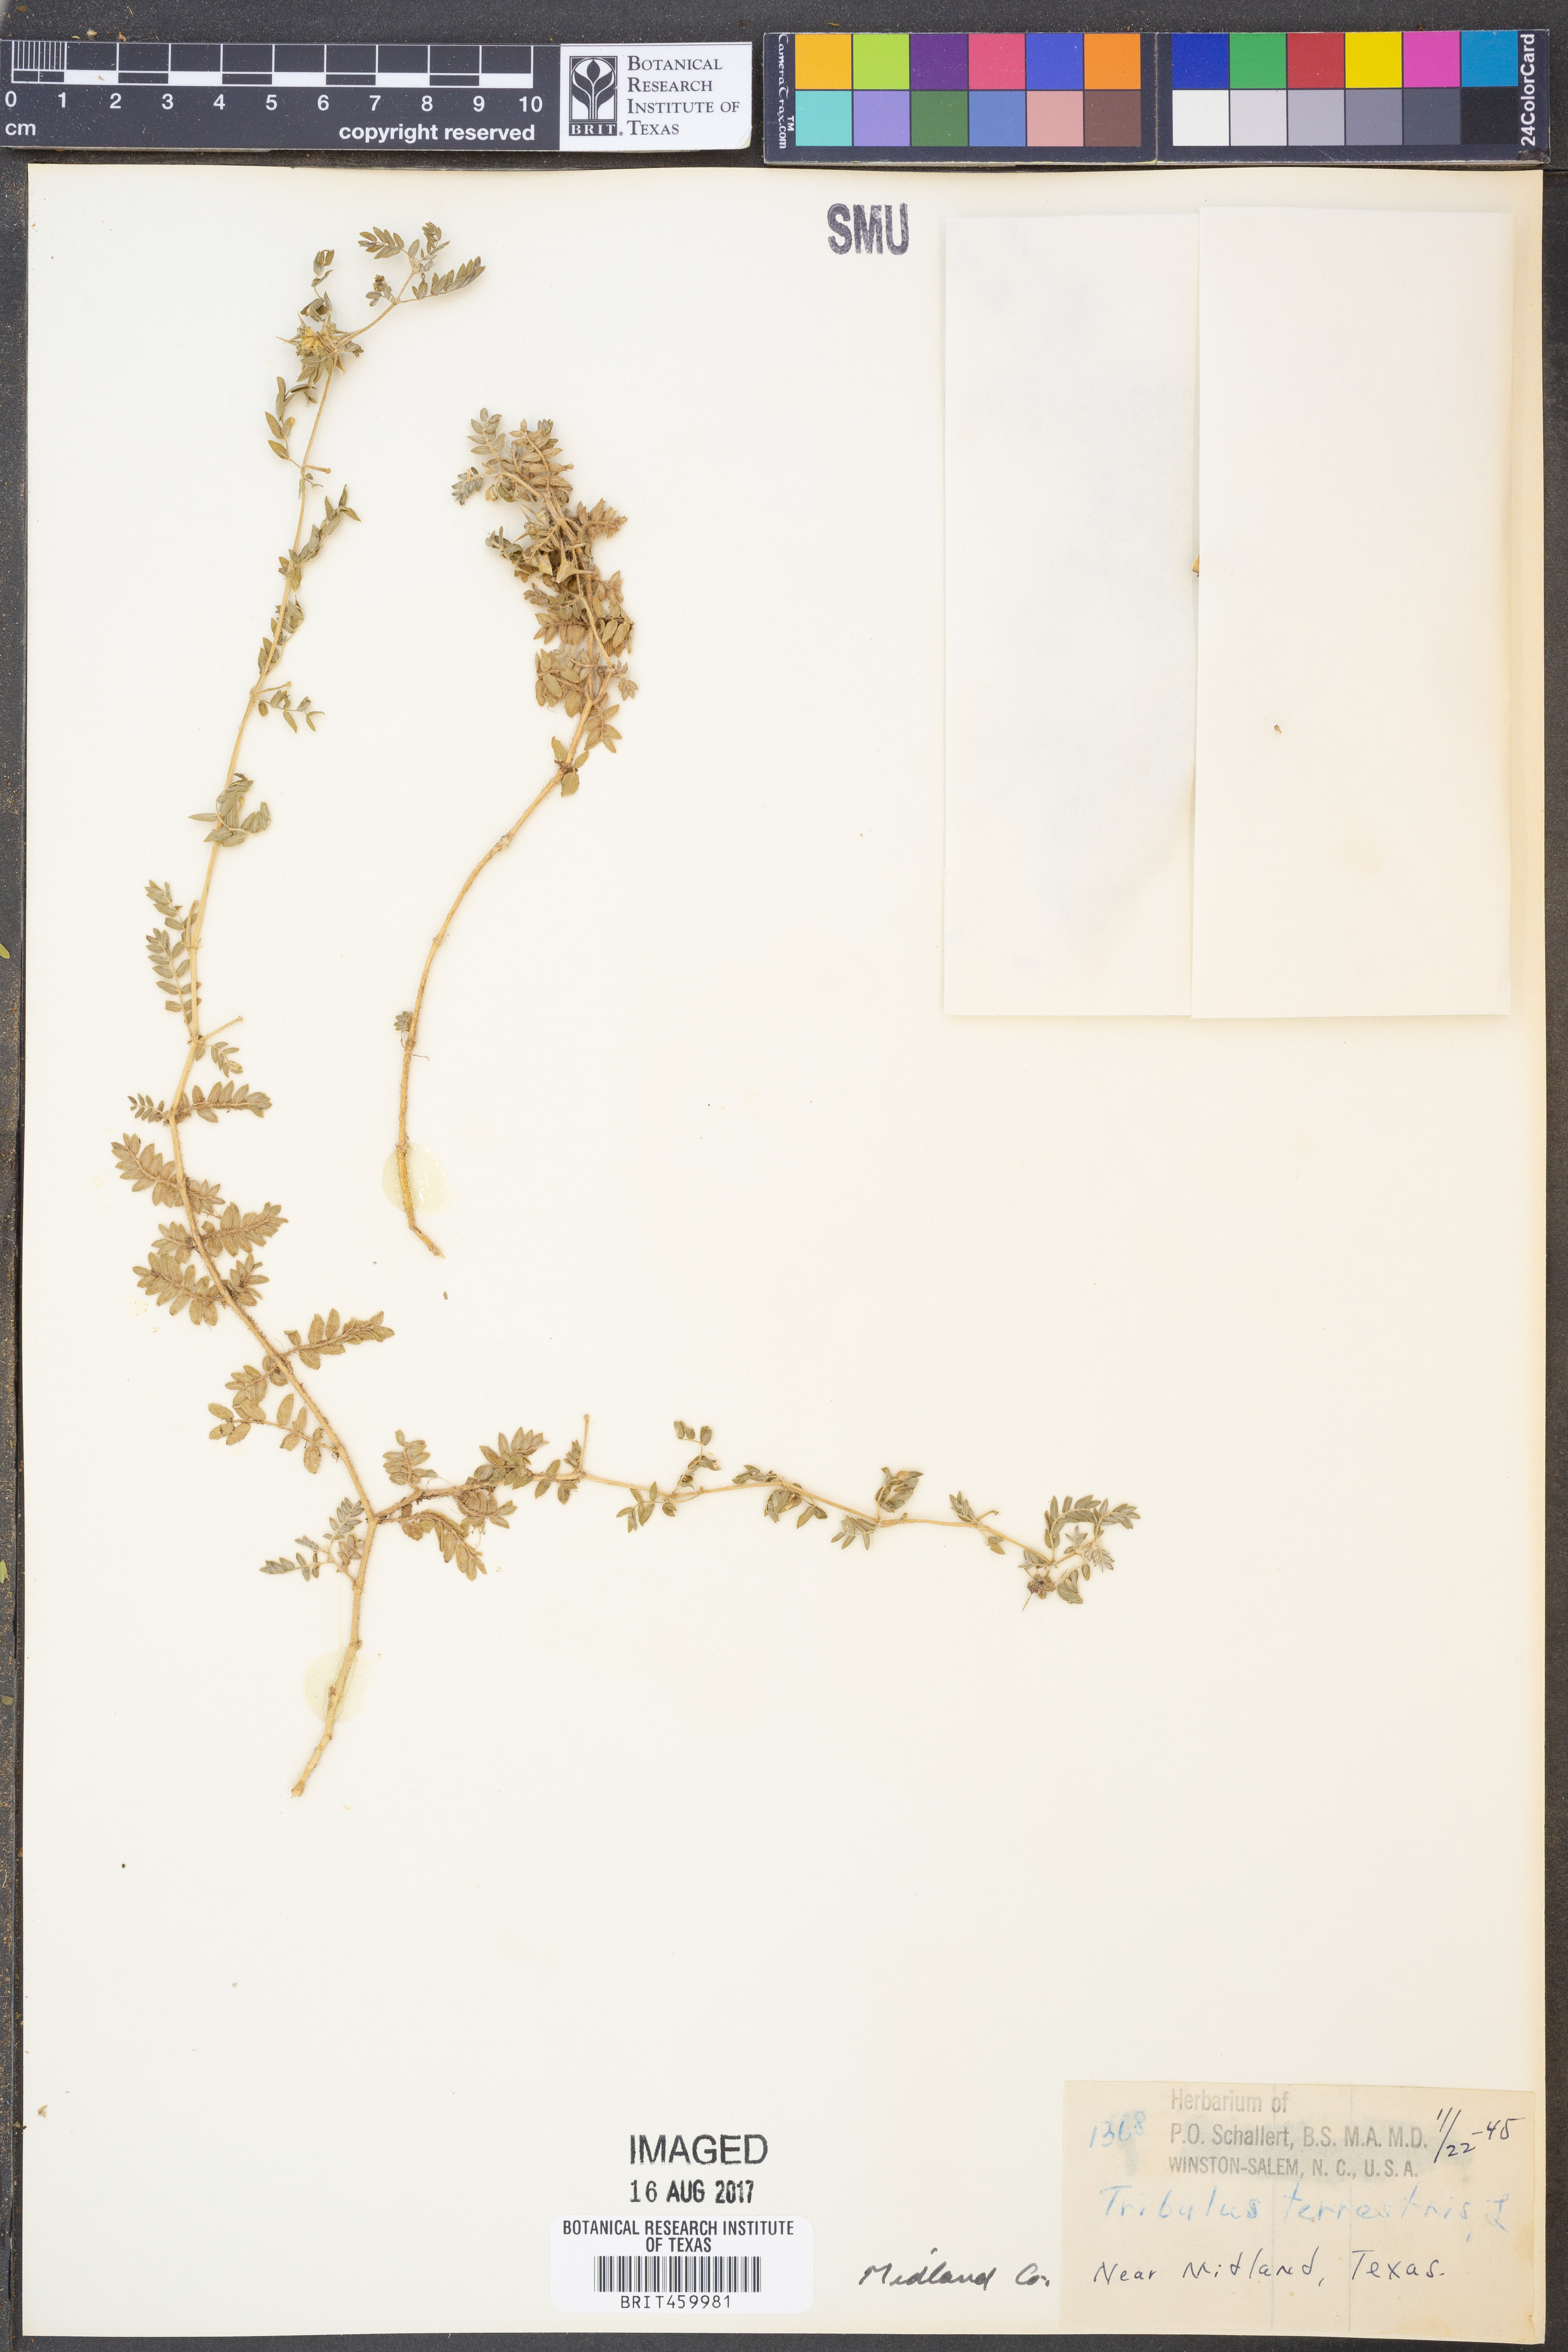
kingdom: Plantae
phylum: Tracheophyta
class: Magnoliopsida
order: Zygophyllales
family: Zygophyllaceae
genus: Tribulus
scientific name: Tribulus terrestris
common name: Puncturevine
